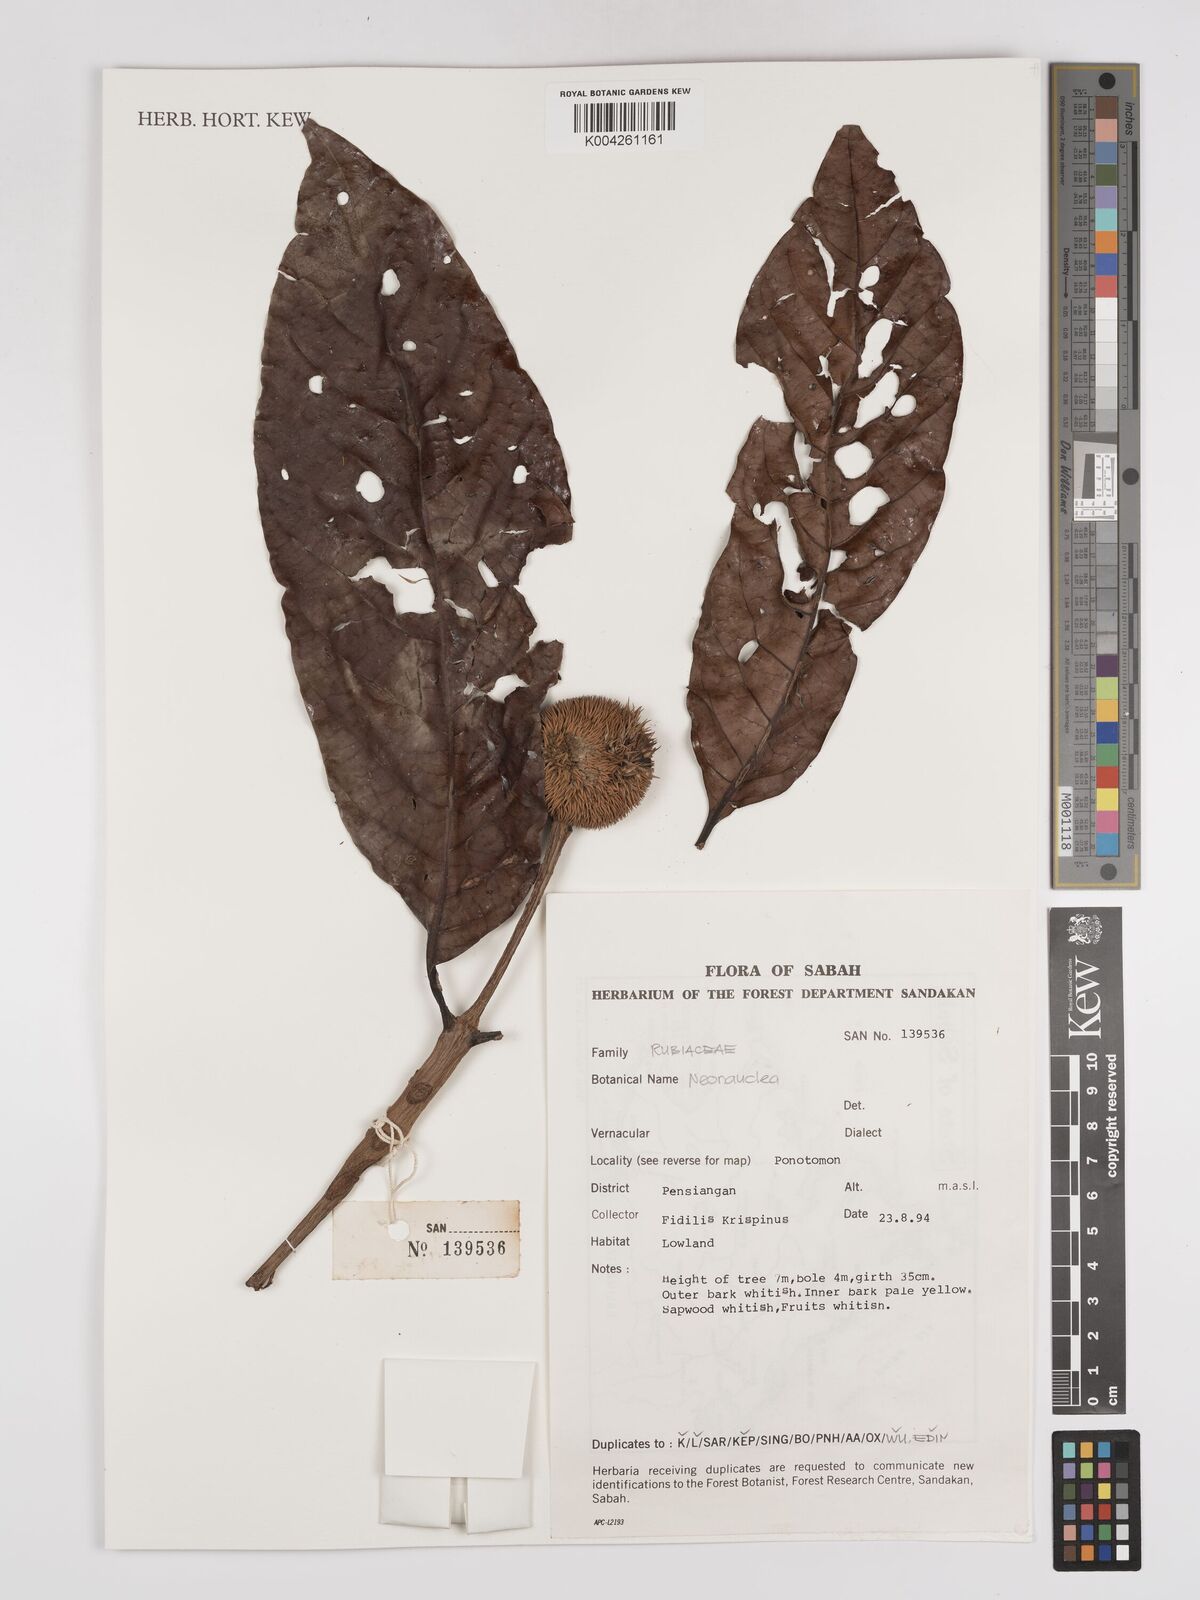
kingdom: Plantae
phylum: Tracheophyta
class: Magnoliopsida
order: Gentianales
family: Rubiaceae
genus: Neonauclea
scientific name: Neonauclea
